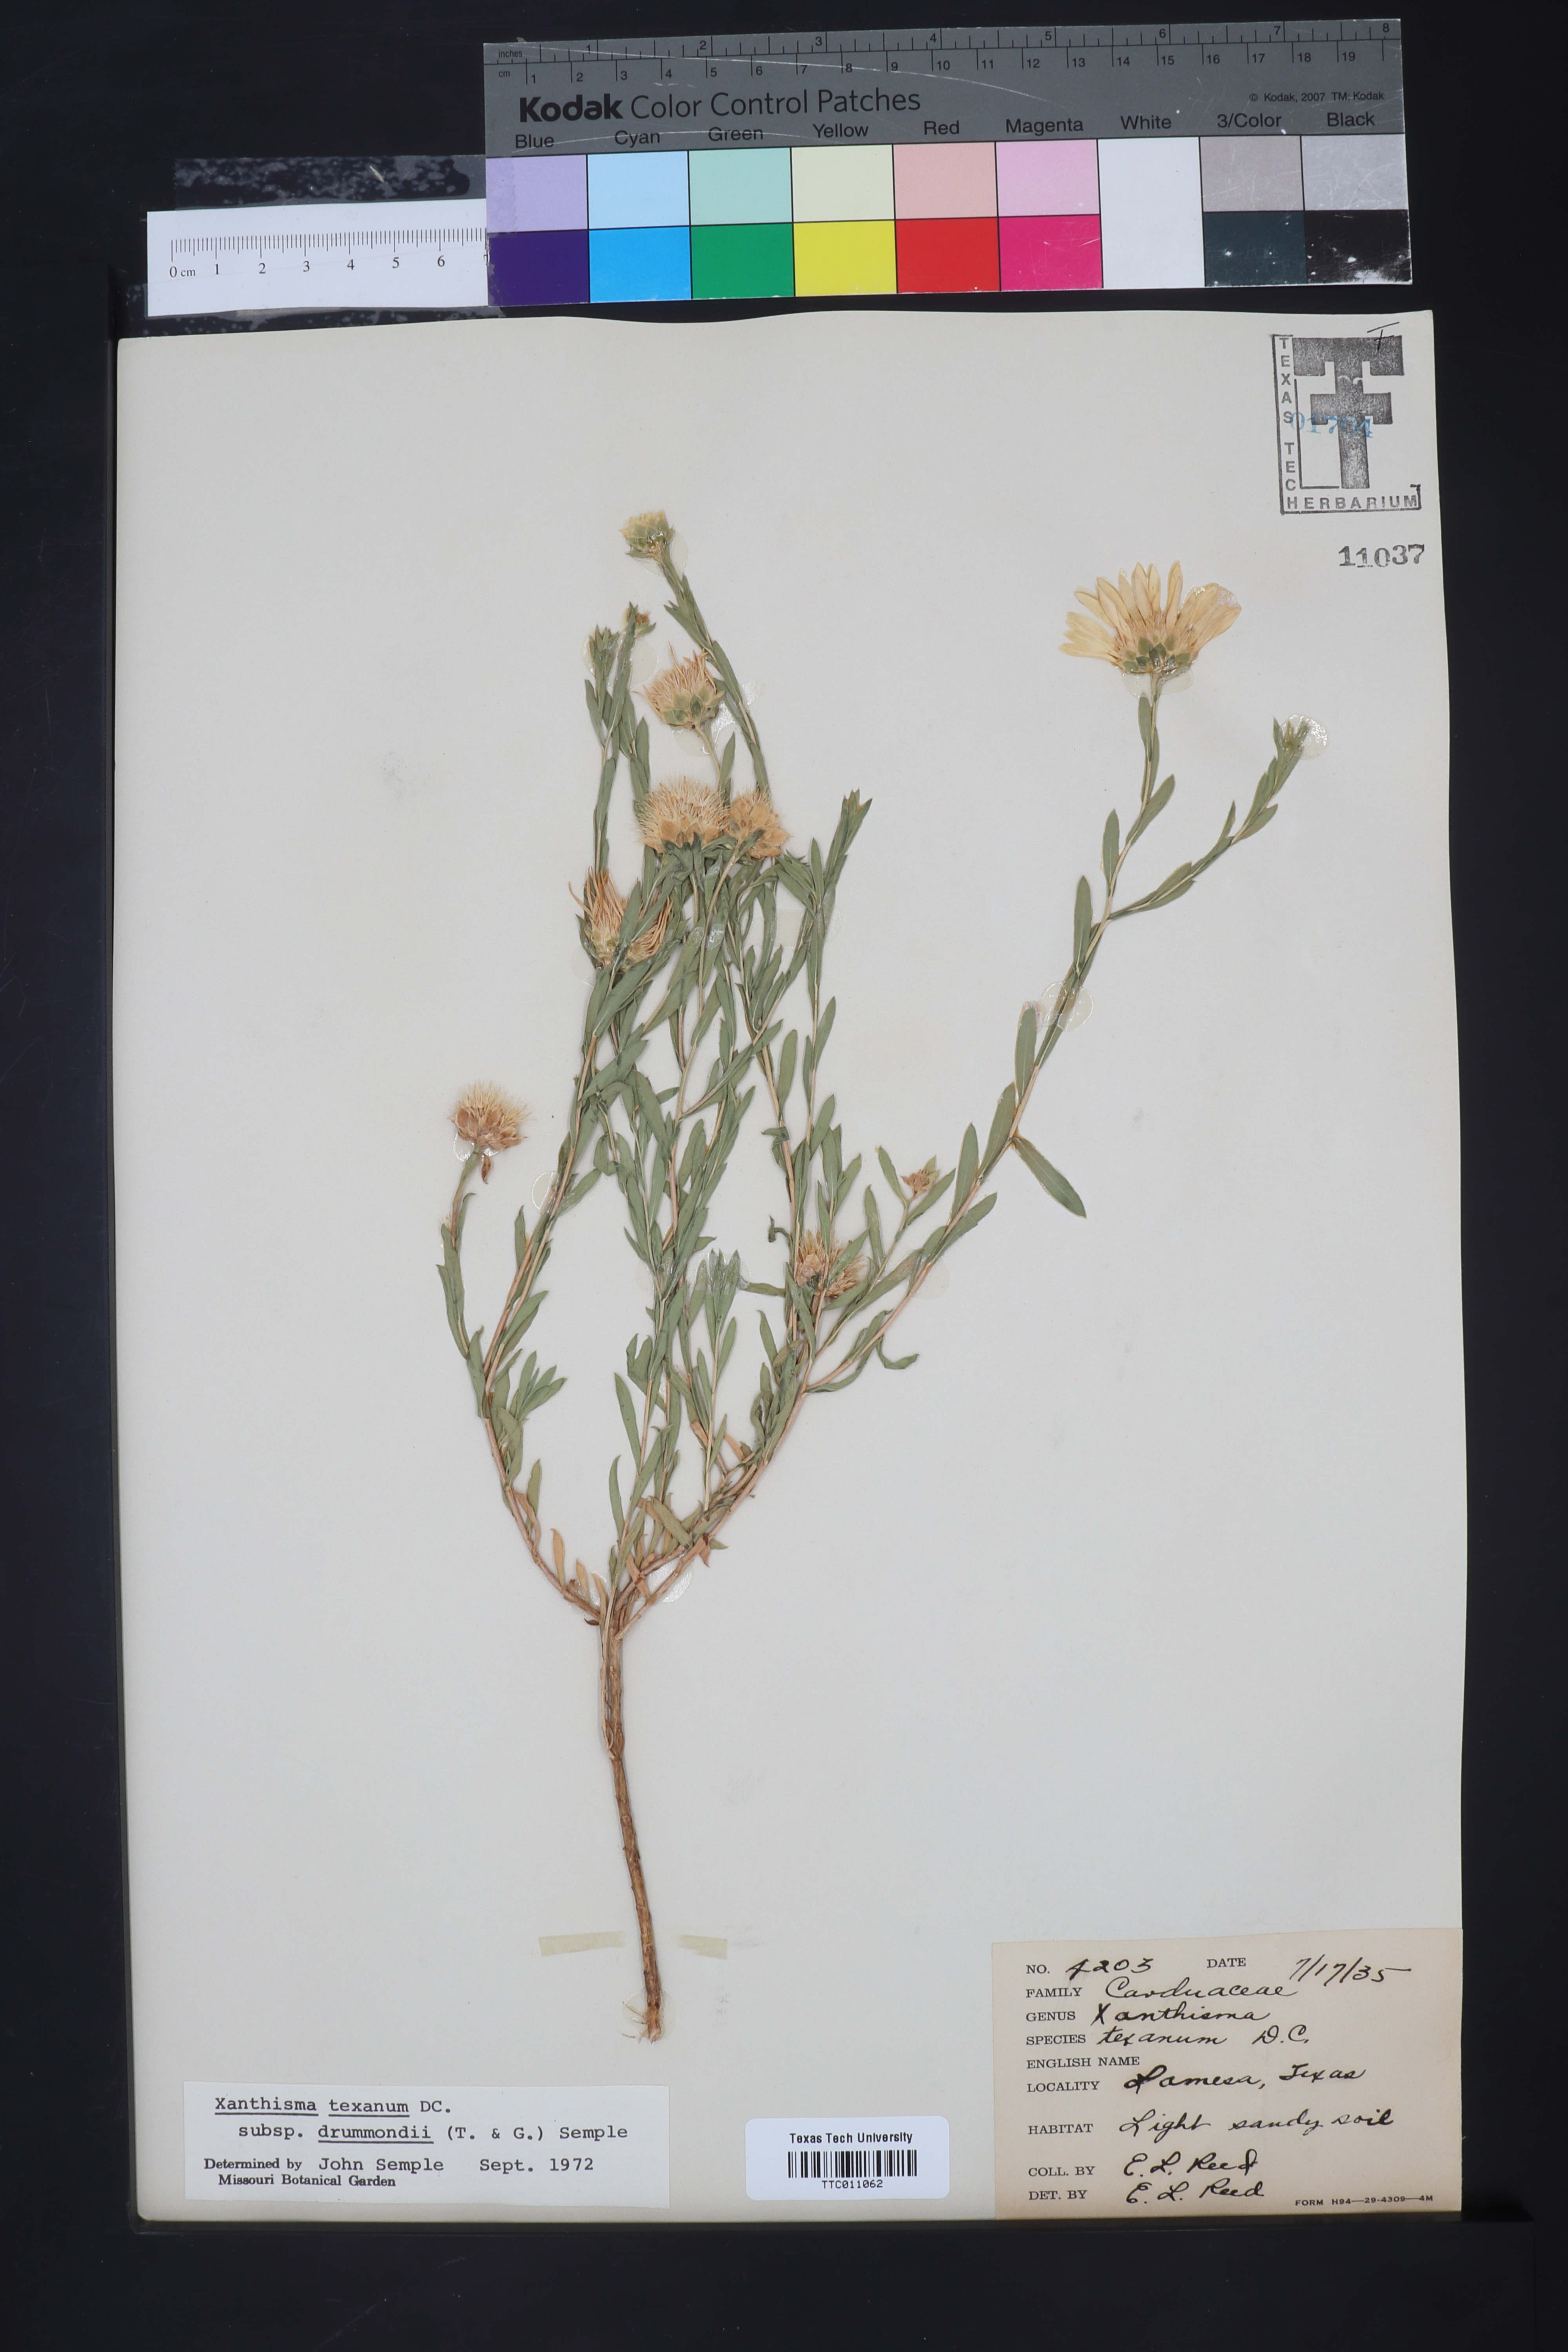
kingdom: Plantae
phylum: Tracheophyta
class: Magnoliopsida
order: Asterales
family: Asteraceae
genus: Xanthisma
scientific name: Xanthisma texanum
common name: Texas sleepy daisy
